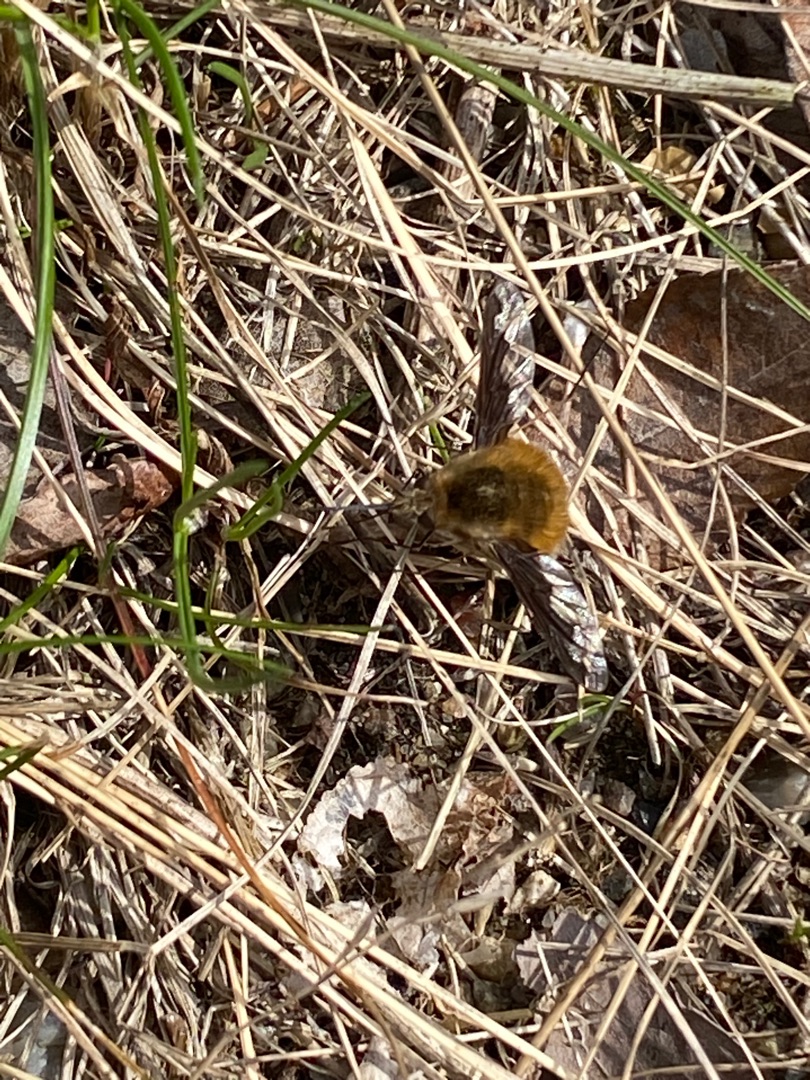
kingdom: Animalia
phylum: Arthropoda
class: Insecta
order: Diptera
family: Bombyliidae
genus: Bombylius
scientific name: Bombylius major
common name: Stor humleflue
